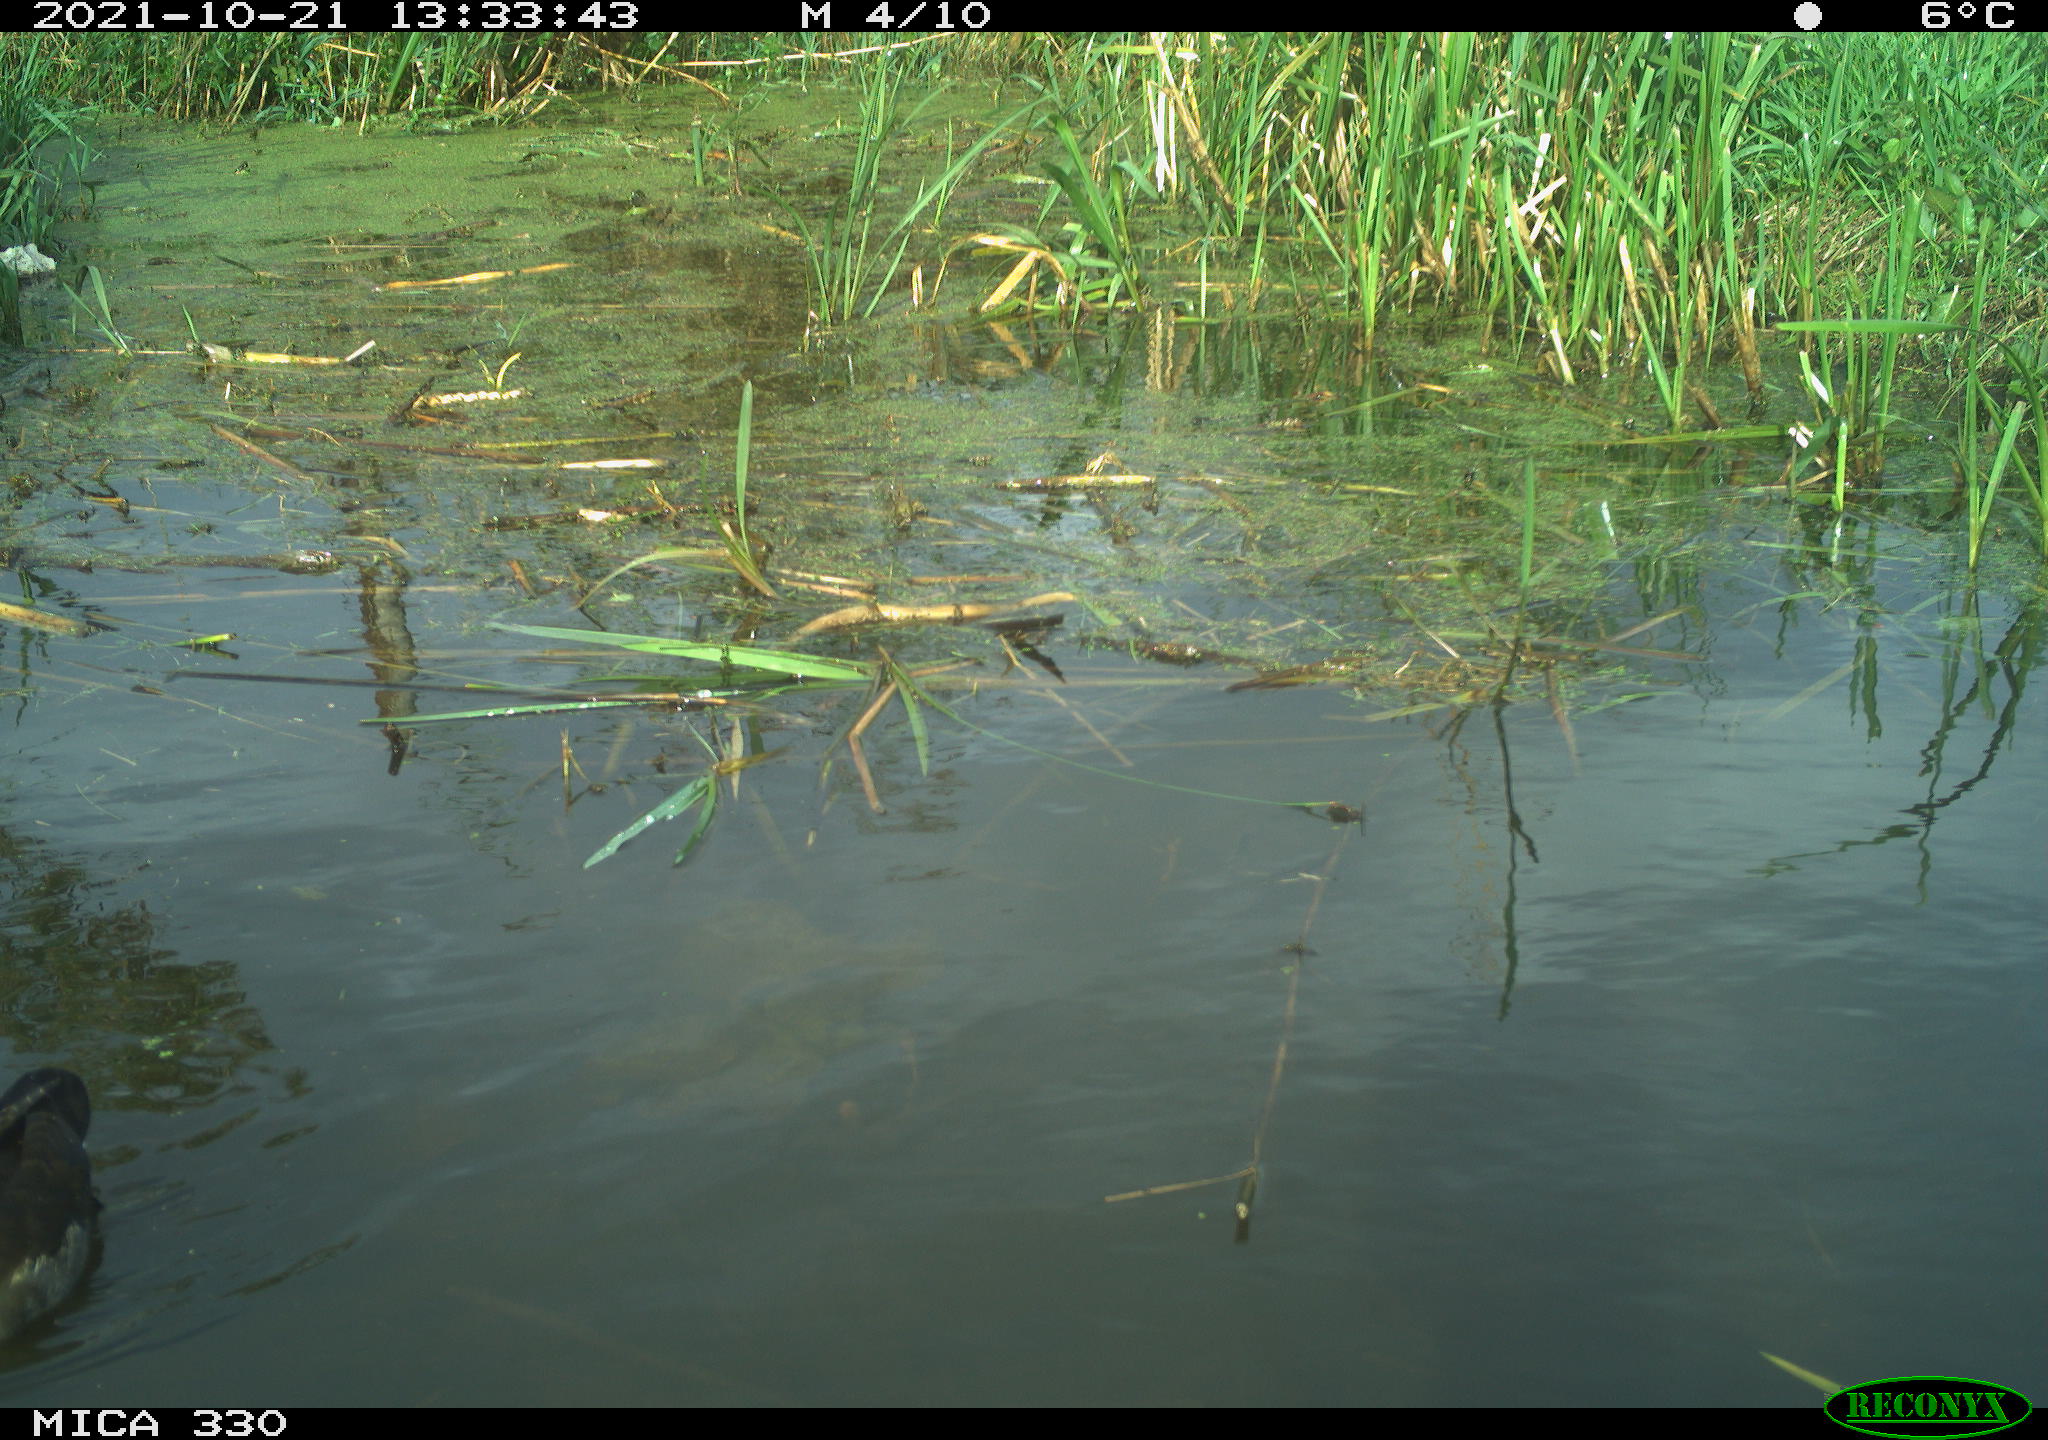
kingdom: Animalia
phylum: Chordata
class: Aves
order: Gruiformes
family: Rallidae
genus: Gallinula
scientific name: Gallinula chloropus
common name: Common moorhen
